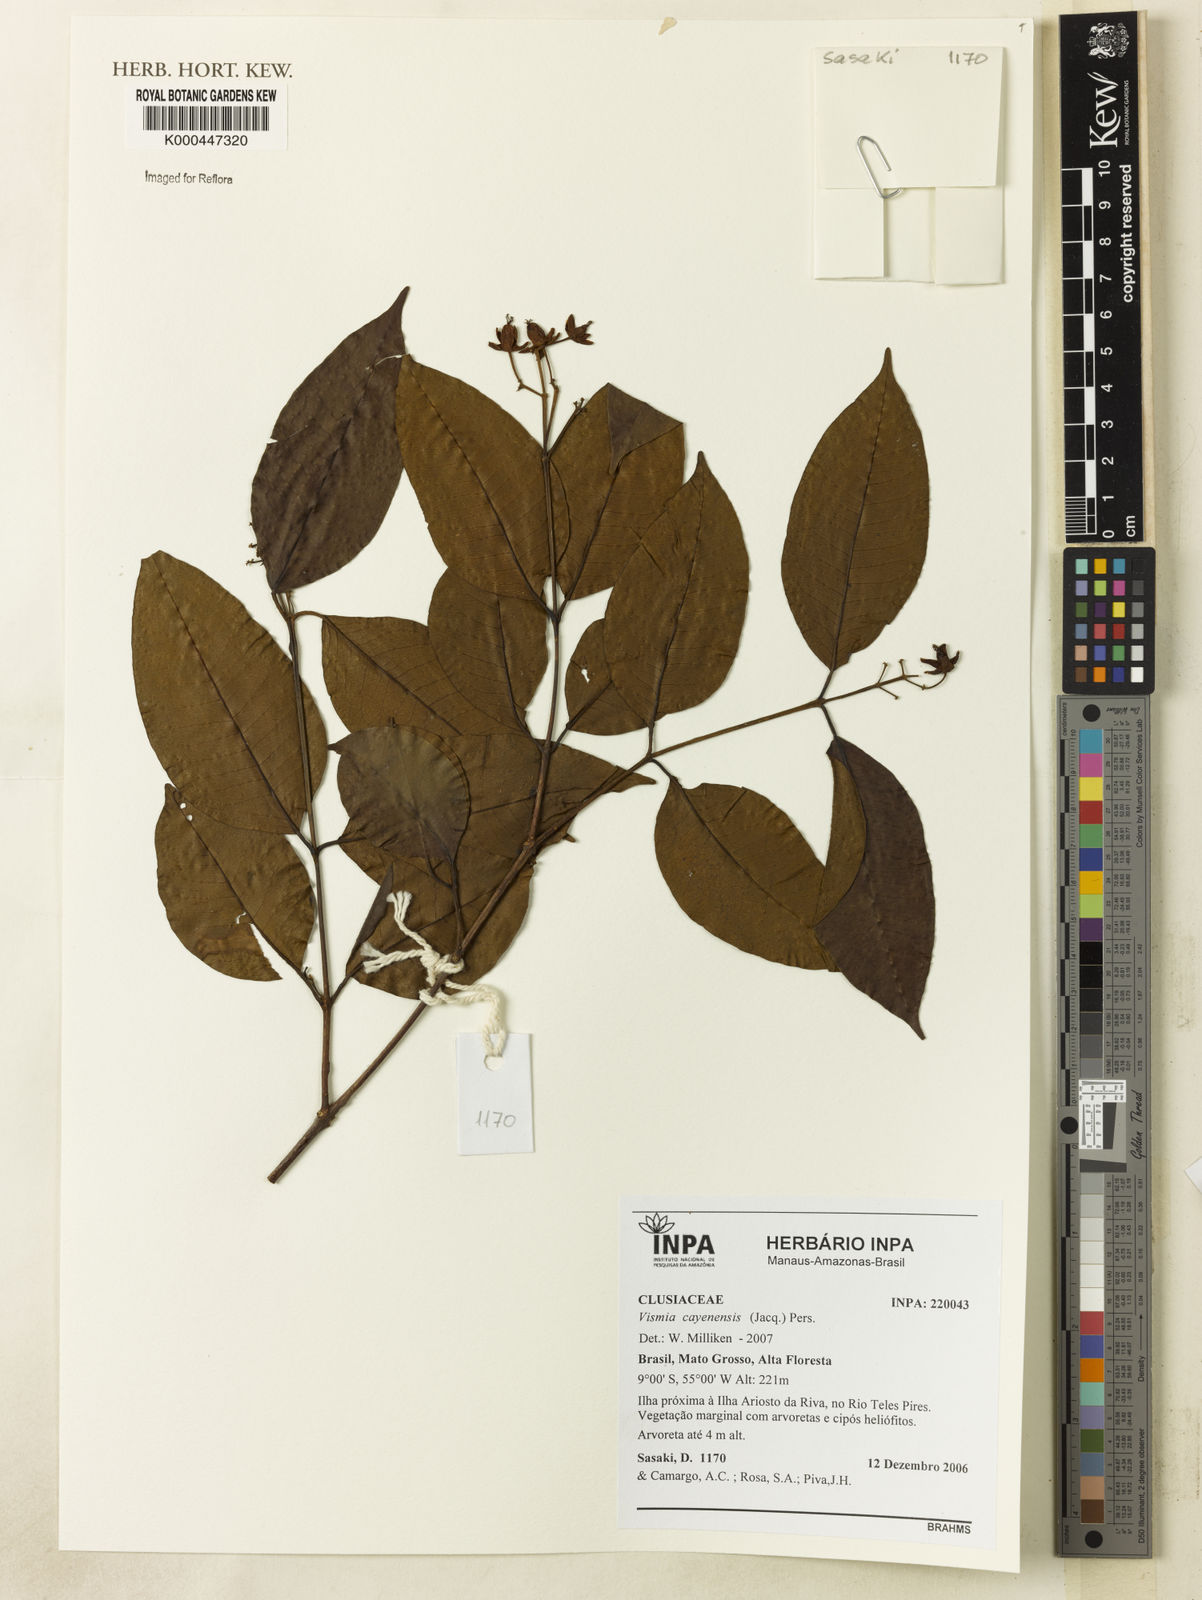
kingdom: Plantae
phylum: Tracheophyta
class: Magnoliopsida
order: Malpighiales
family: Hypericaceae
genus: Vismia
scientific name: Vismia cayennensis
